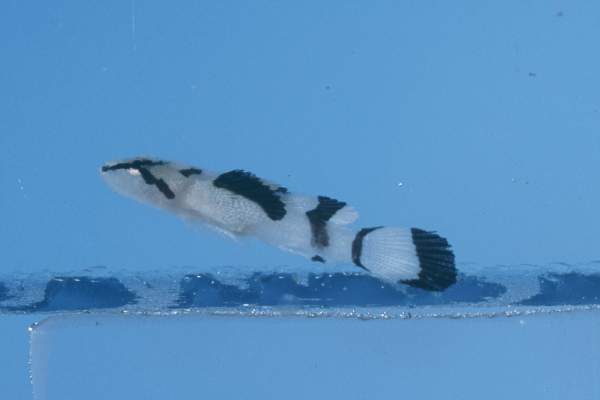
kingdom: Animalia
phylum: Chordata
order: Perciformes
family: Gobiidae
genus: Callogobius
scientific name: Callogobius plumatus
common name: Feather goby
